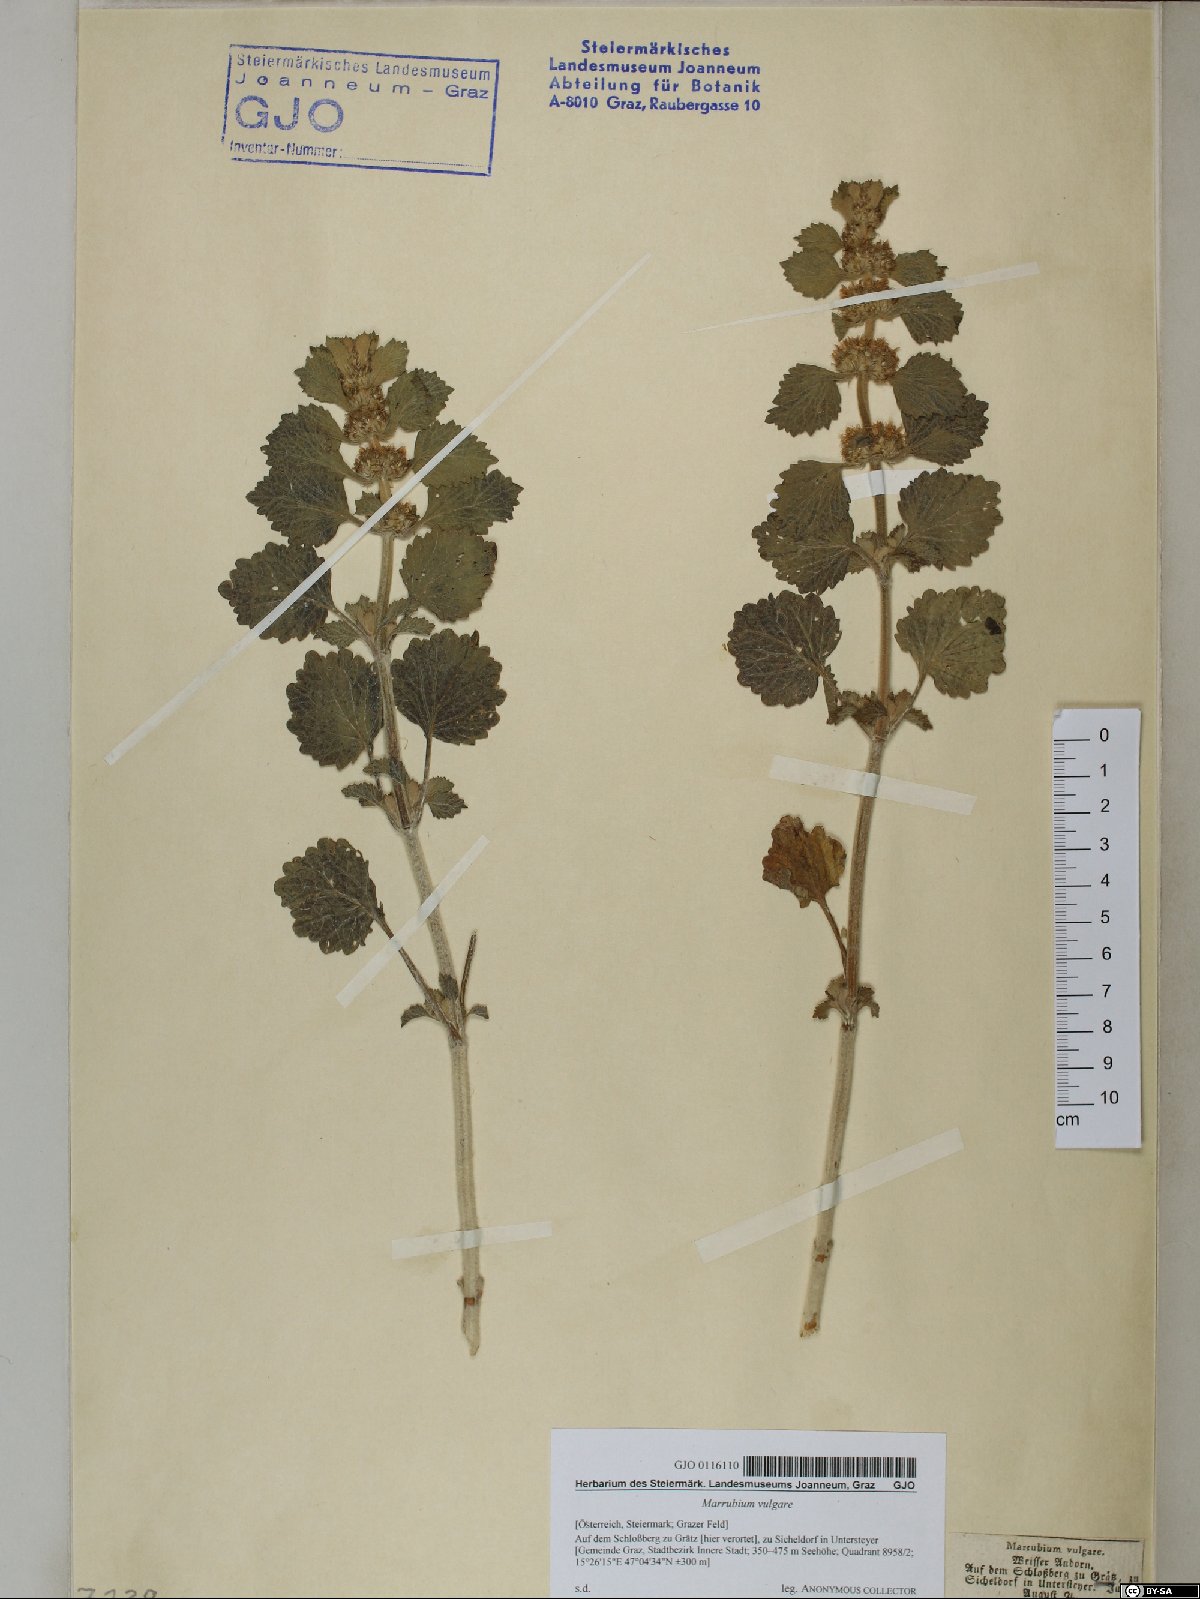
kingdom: Plantae
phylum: Tracheophyta
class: Magnoliopsida
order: Lamiales
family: Lamiaceae
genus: Marrubium
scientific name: Marrubium vulgare
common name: Horehound
